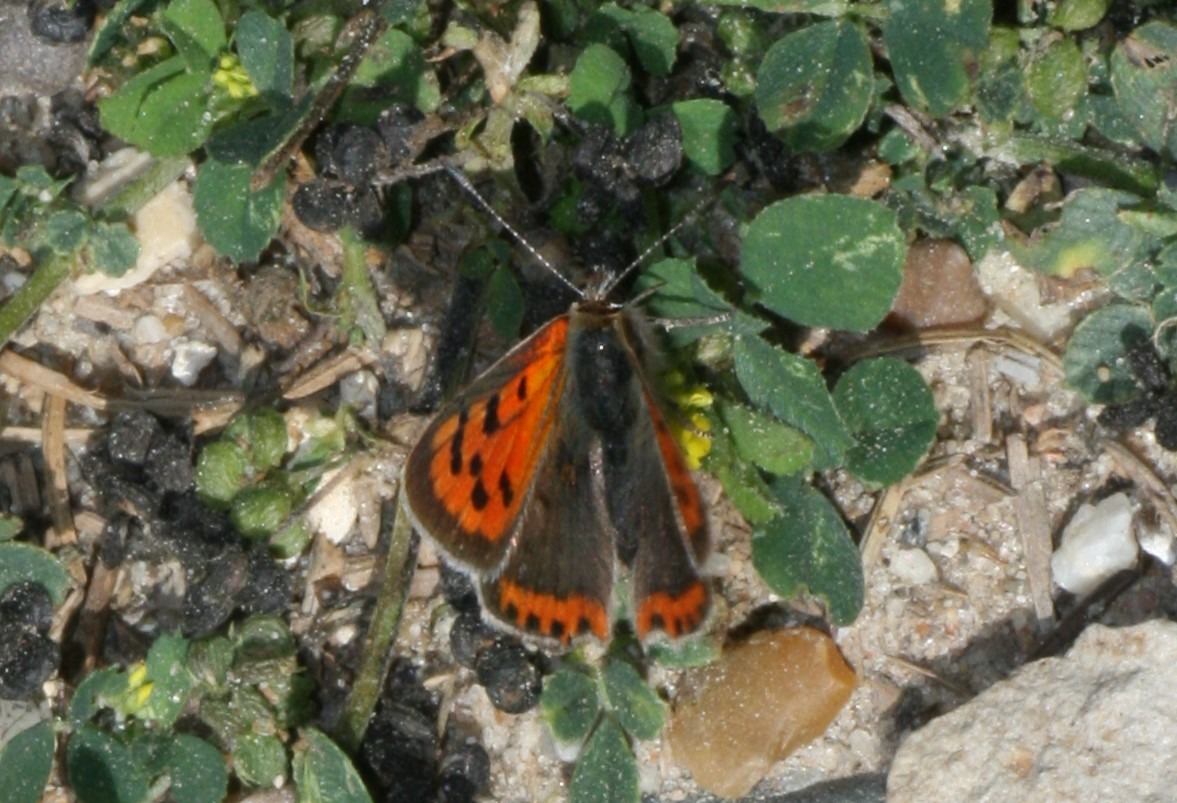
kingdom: Animalia
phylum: Arthropoda
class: Insecta
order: Lepidoptera
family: Lycaenidae
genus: Lycaena
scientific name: Lycaena phlaeas
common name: Lille ildfugl
